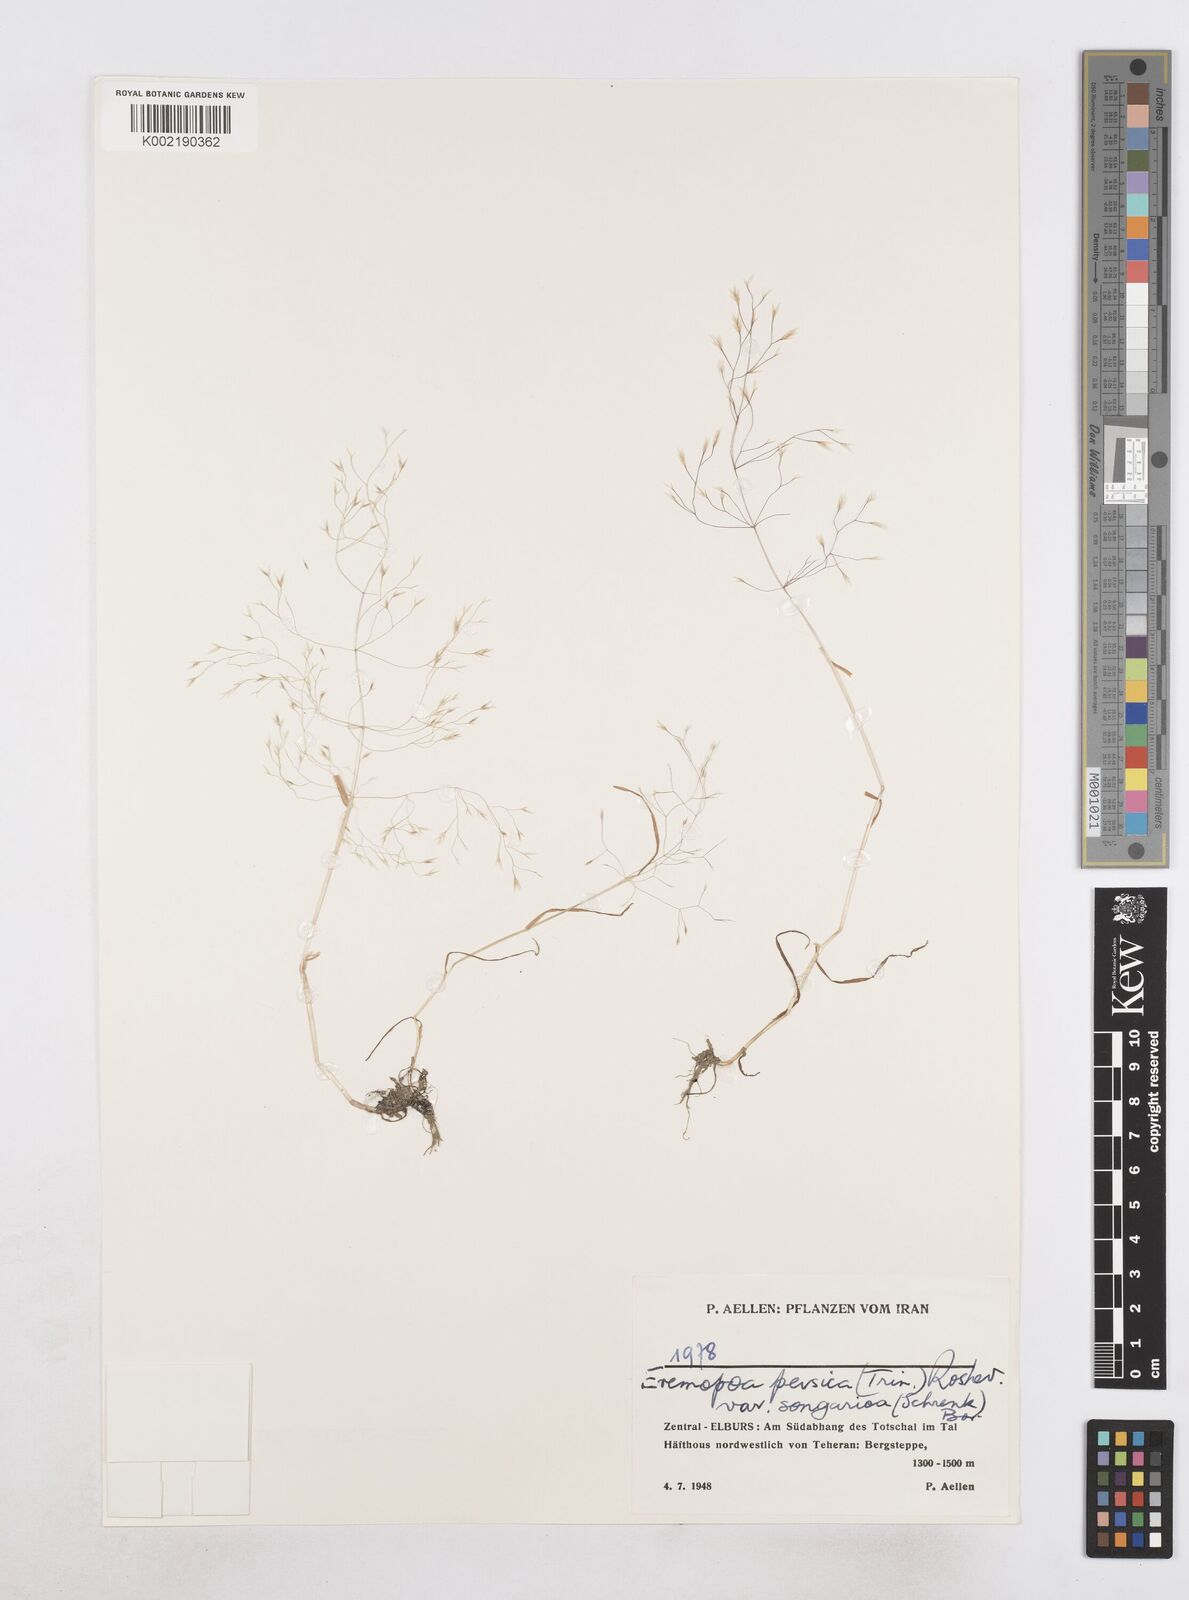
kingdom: Plantae
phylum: Tracheophyta
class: Liliopsida
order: Poales
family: Poaceae
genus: Poa
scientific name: Poa persica
